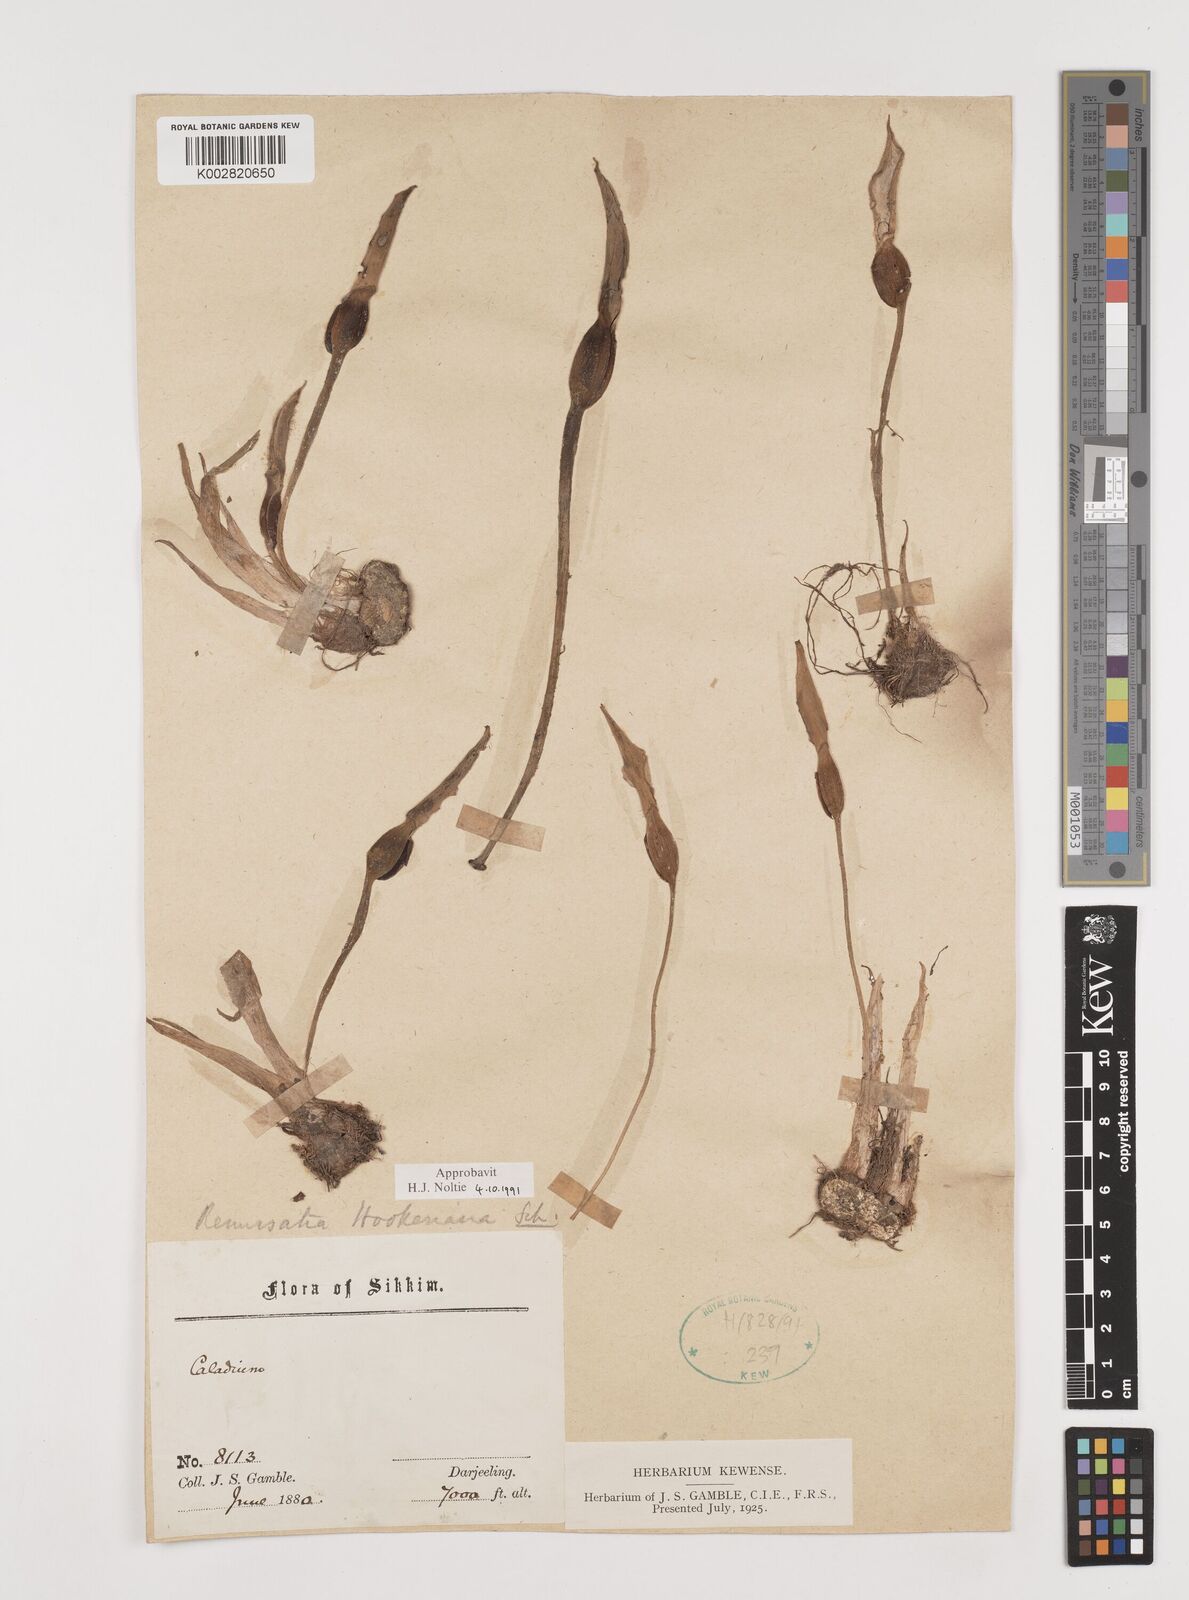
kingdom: Plantae
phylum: Tracheophyta
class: Liliopsida
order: Alismatales
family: Araceae
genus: Remusatia
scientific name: Remusatia hookeriana
